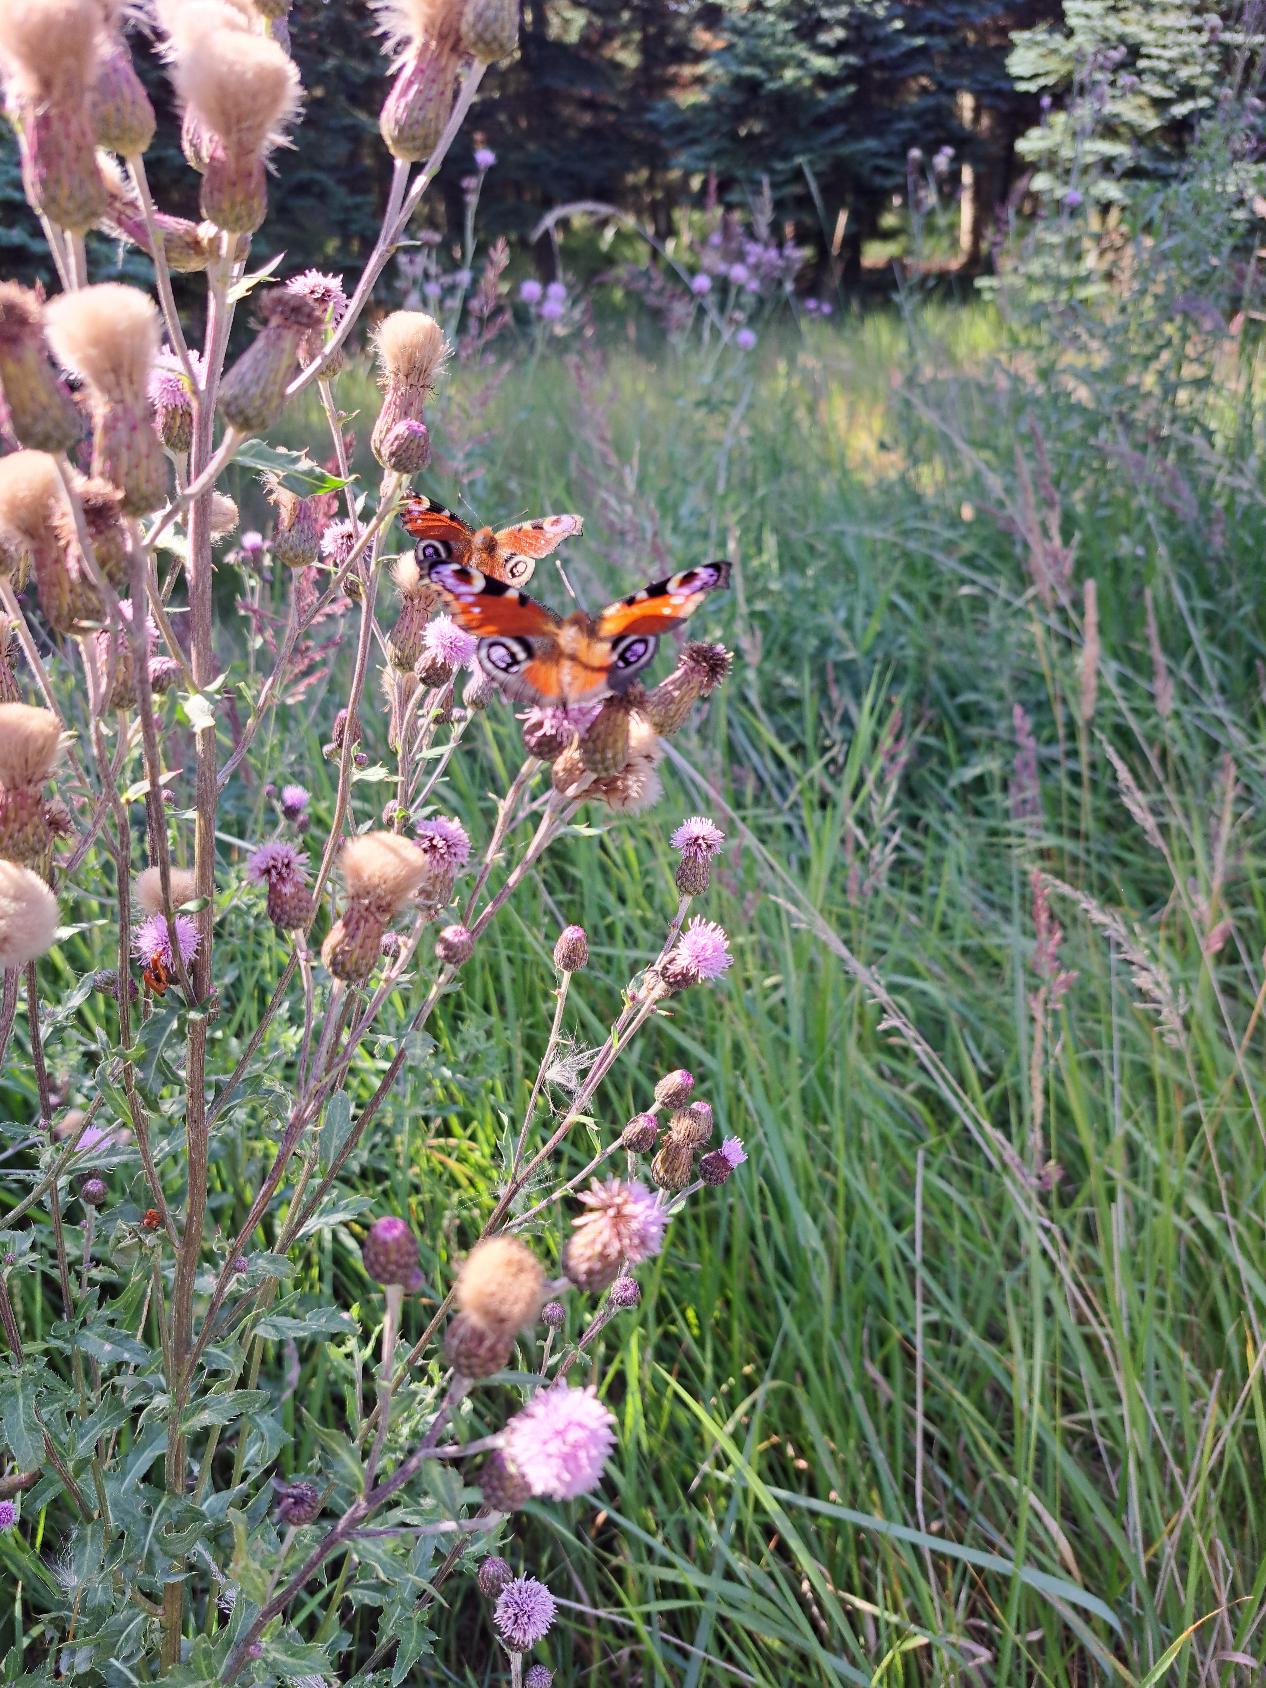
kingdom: Animalia
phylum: Arthropoda
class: Insecta
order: Lepidoptera
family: Nymphalidae
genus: Aglais
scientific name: Aglais io
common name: Dagpåfugleøje
